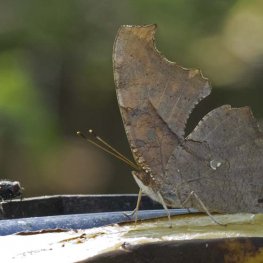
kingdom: Animalia
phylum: Arthropoda
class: Insecta
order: Lepidoptera
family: Nymphalidae
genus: Polygonia
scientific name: Polygonia interrogationis
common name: Question Mark
